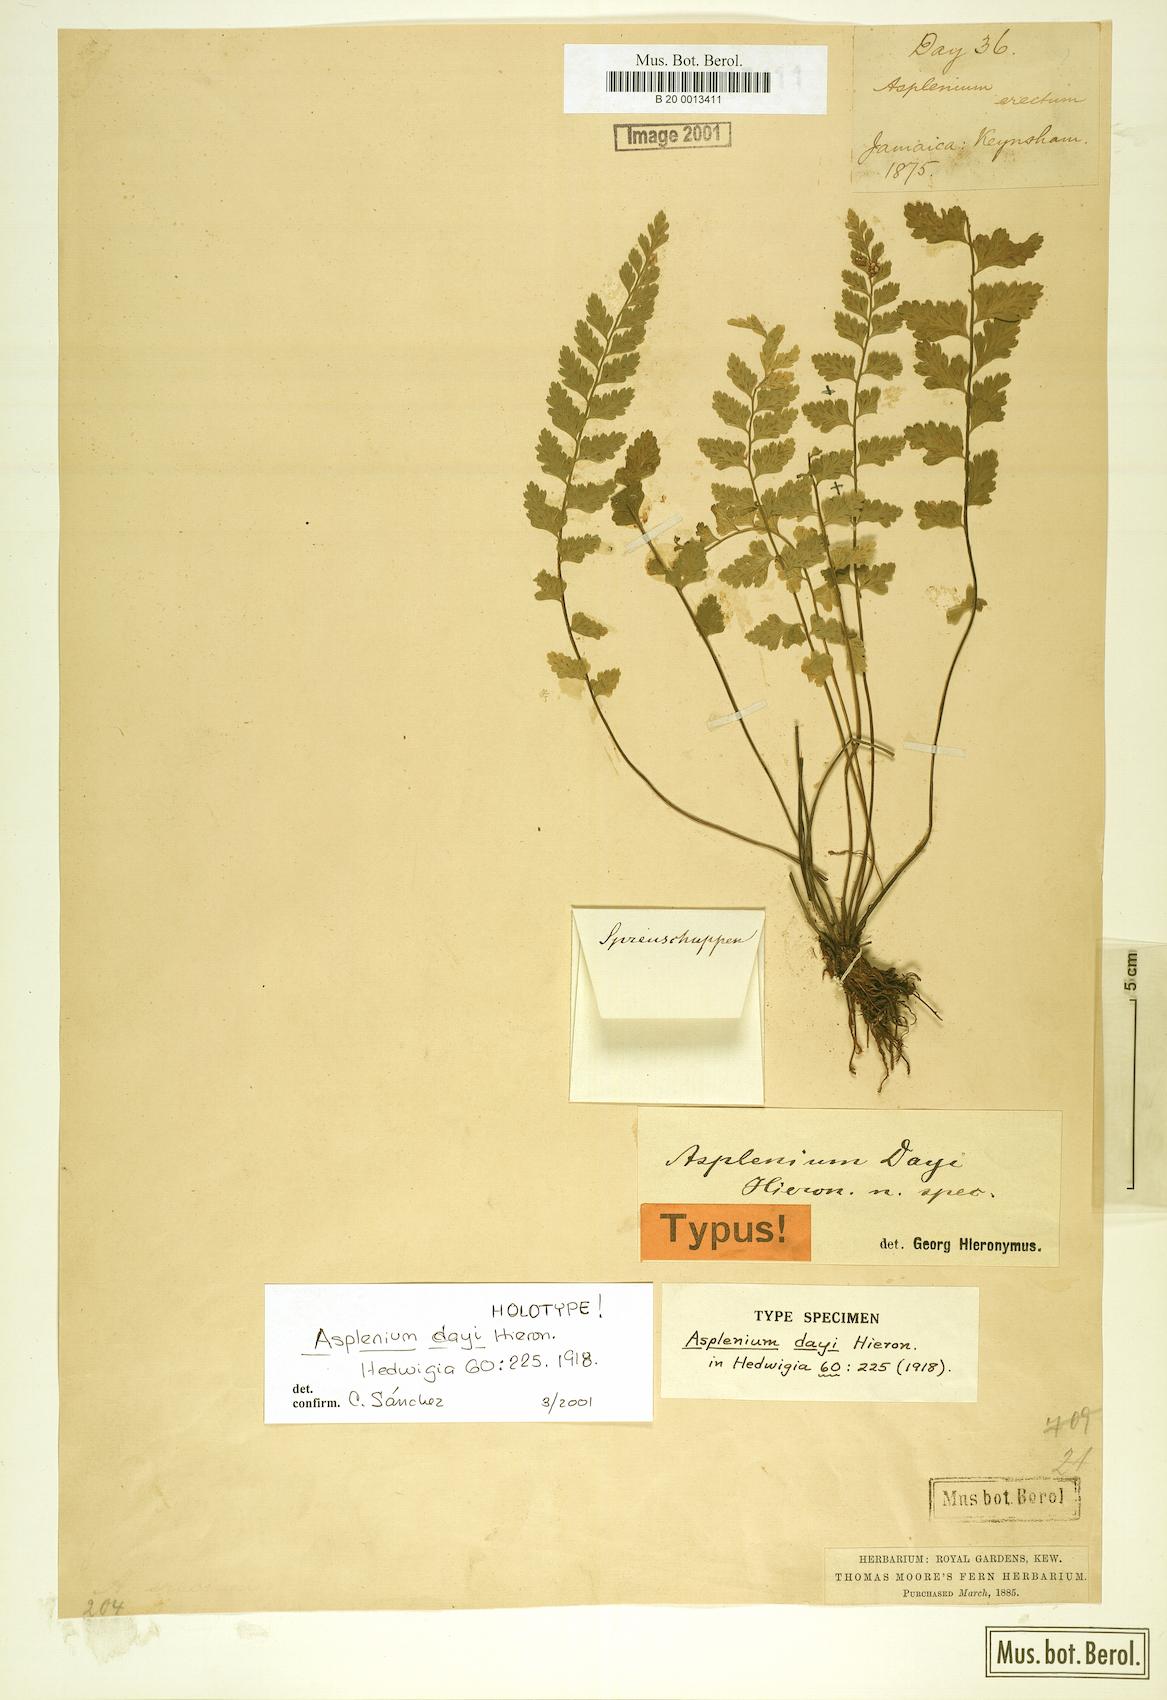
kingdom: Plantae
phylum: Tracheophyta
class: Polypodiopsida
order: Polypodiales
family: Aspleniaceae
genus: Asplenium
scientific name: Asplenium dayi
